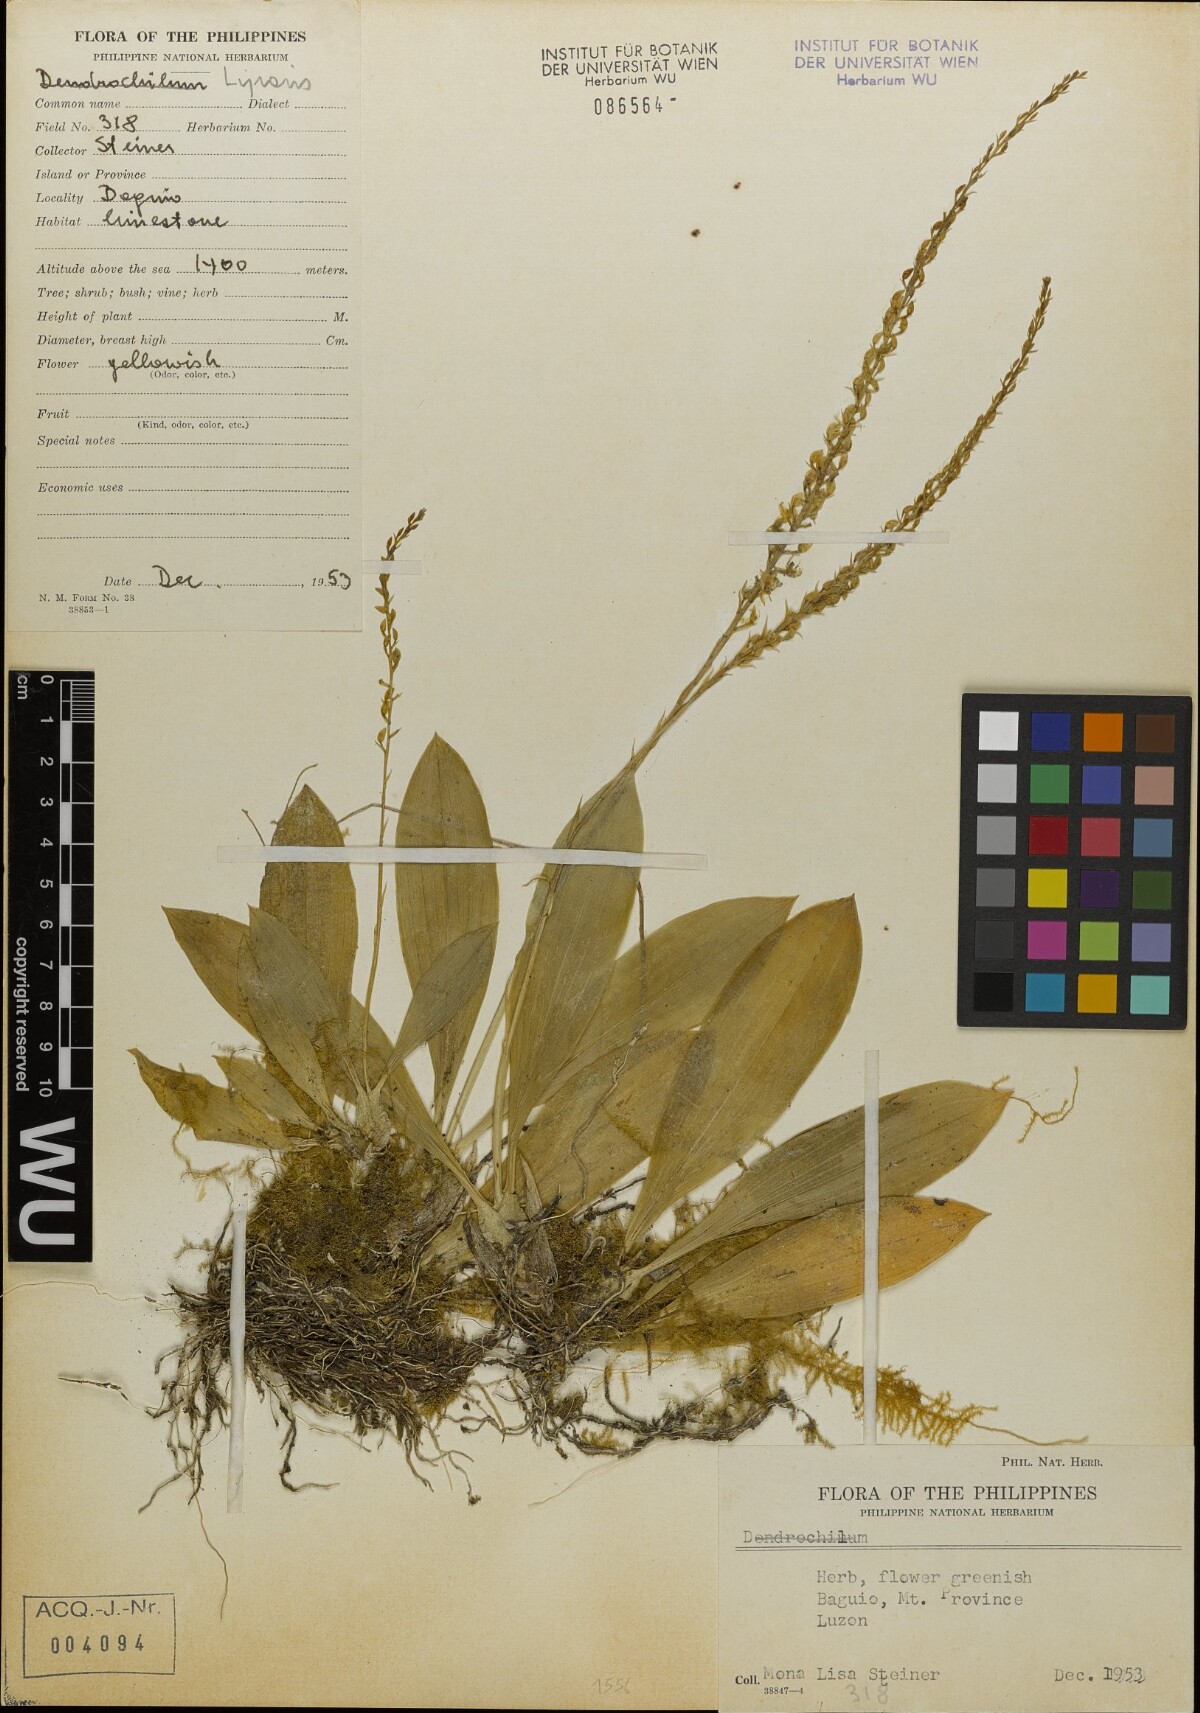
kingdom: Plantae
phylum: Tracheophyta
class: Liliopsida
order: Asparagales
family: Orchidaceae
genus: Liparis
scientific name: Liparis
